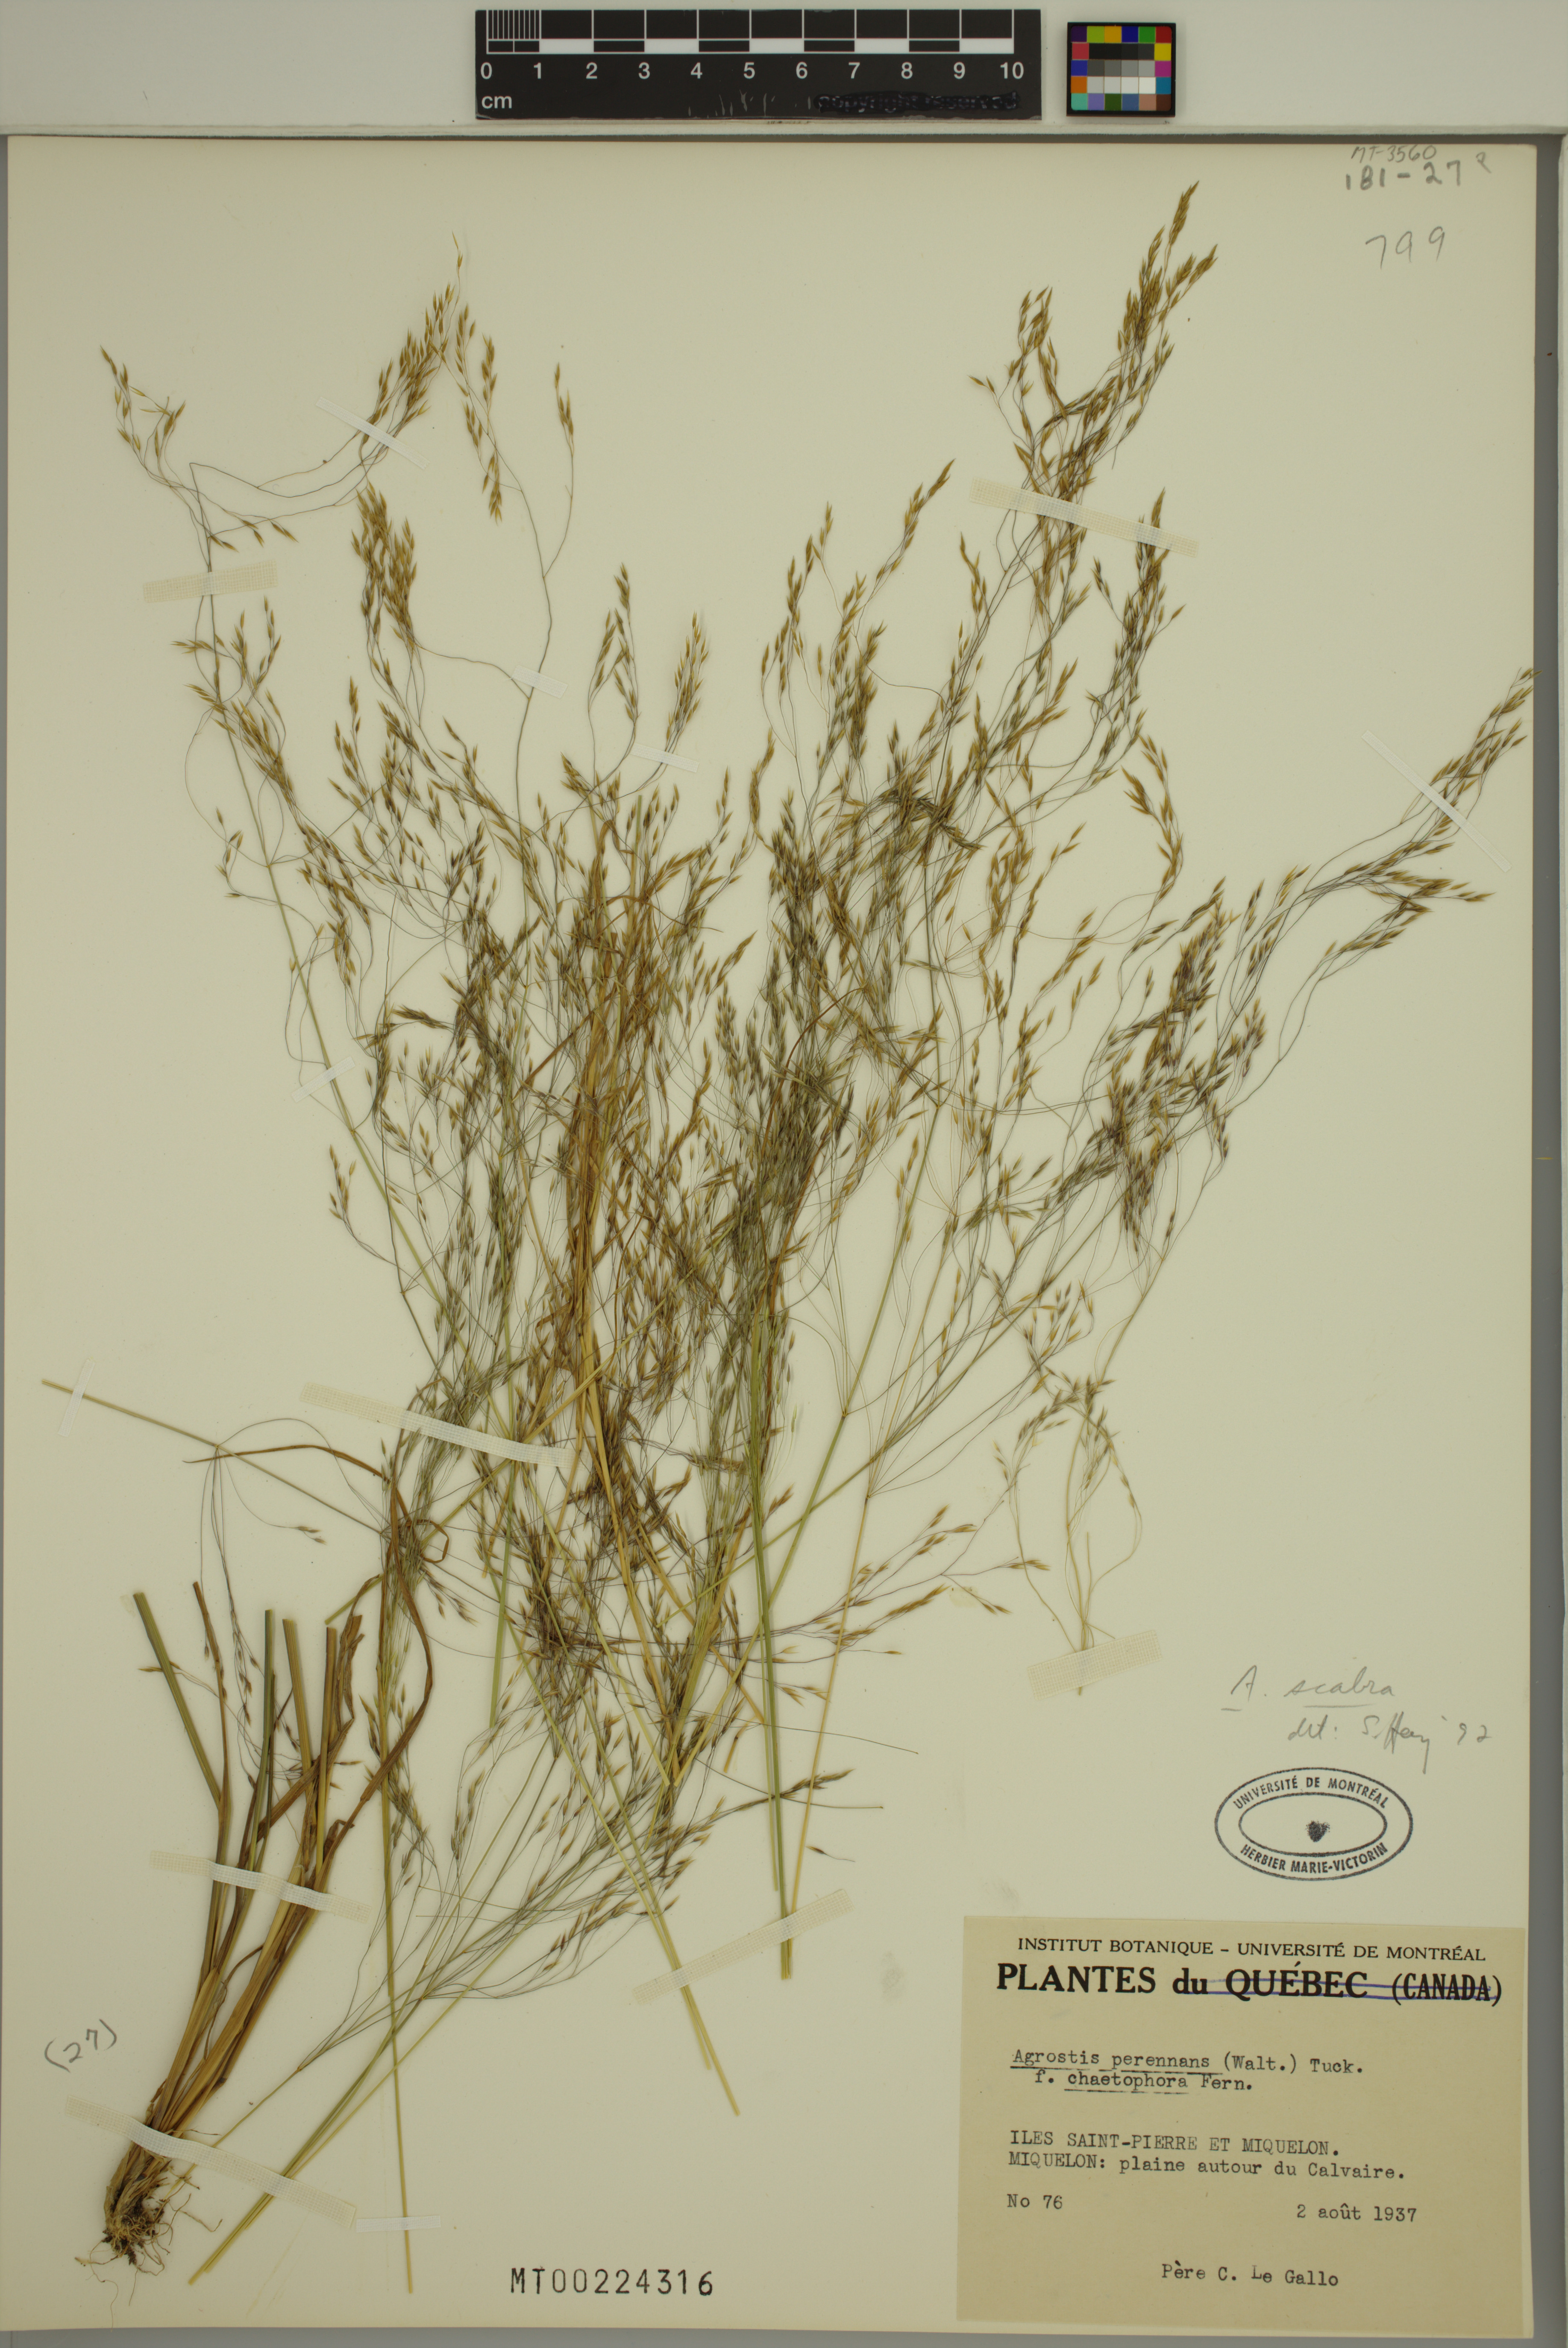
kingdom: Plantae
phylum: Tracheophyta
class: Liliopsida
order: Poales
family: Poaceae
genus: Agrostis
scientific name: Agrostis scabra
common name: Rough bent
